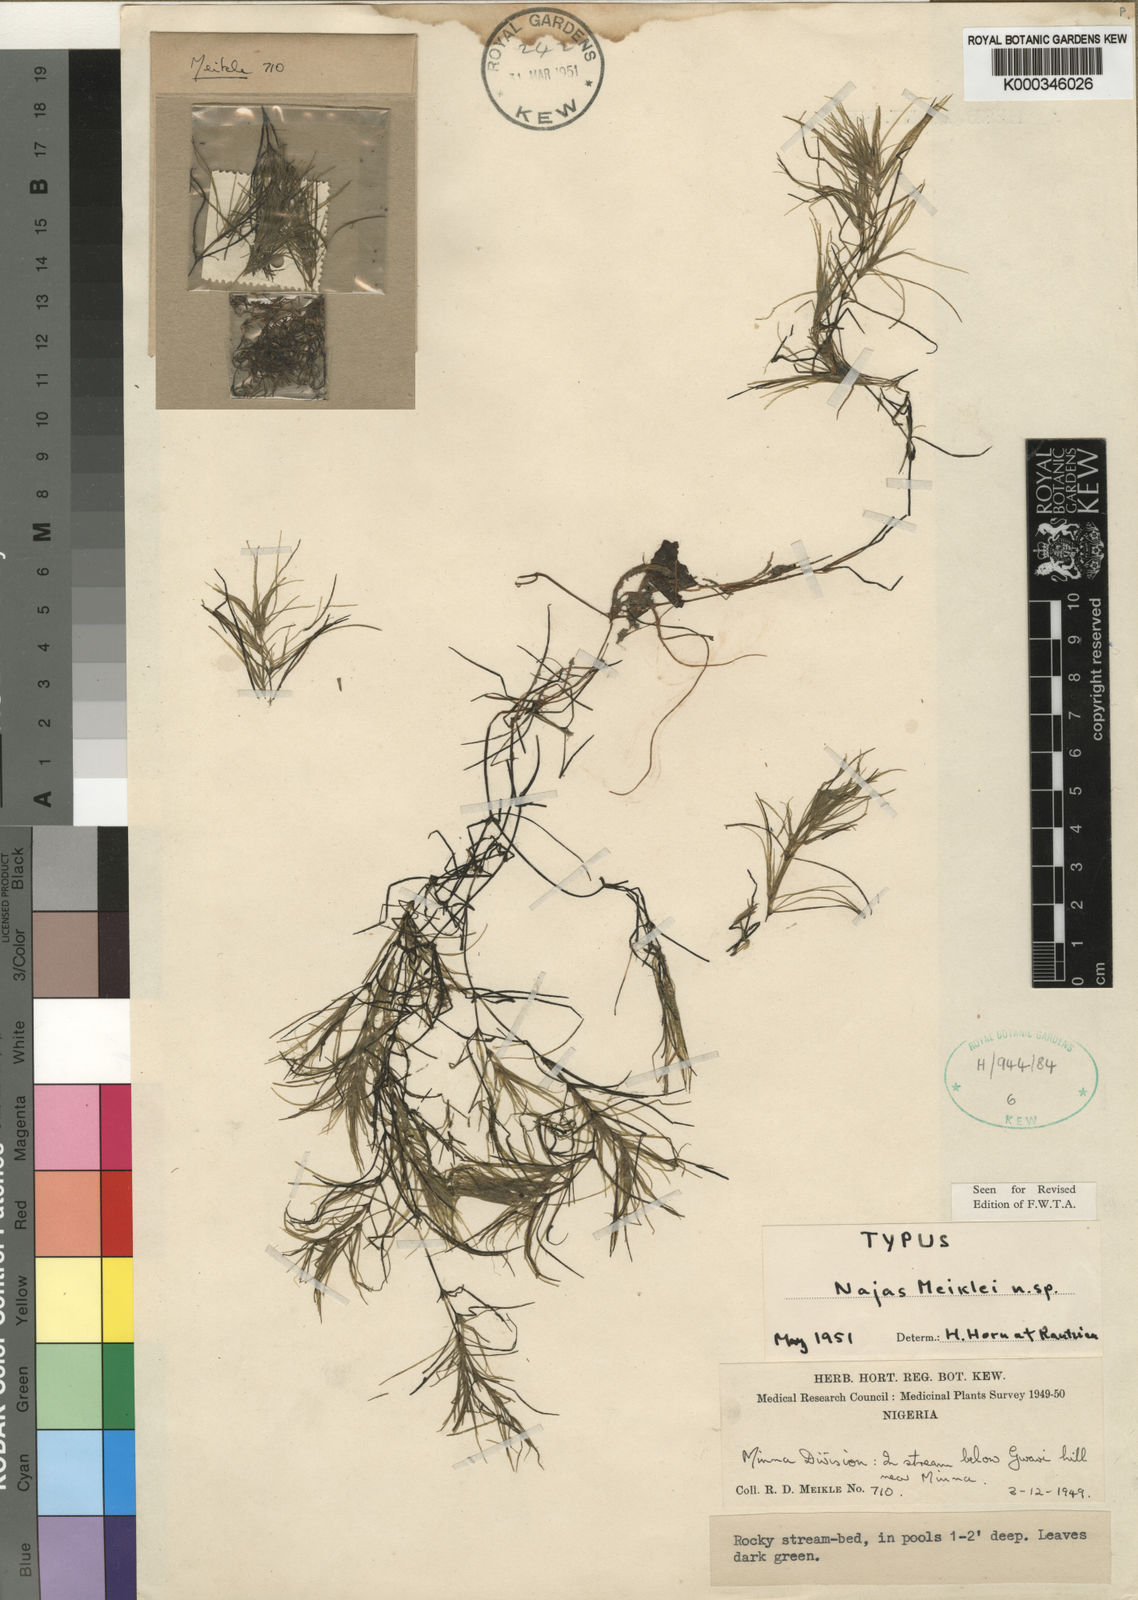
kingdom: Plantae
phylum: Tracheophyta
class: Liliopsida
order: Alismatales
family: Hydrocharitaceae
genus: Najas
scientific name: Najas testui
